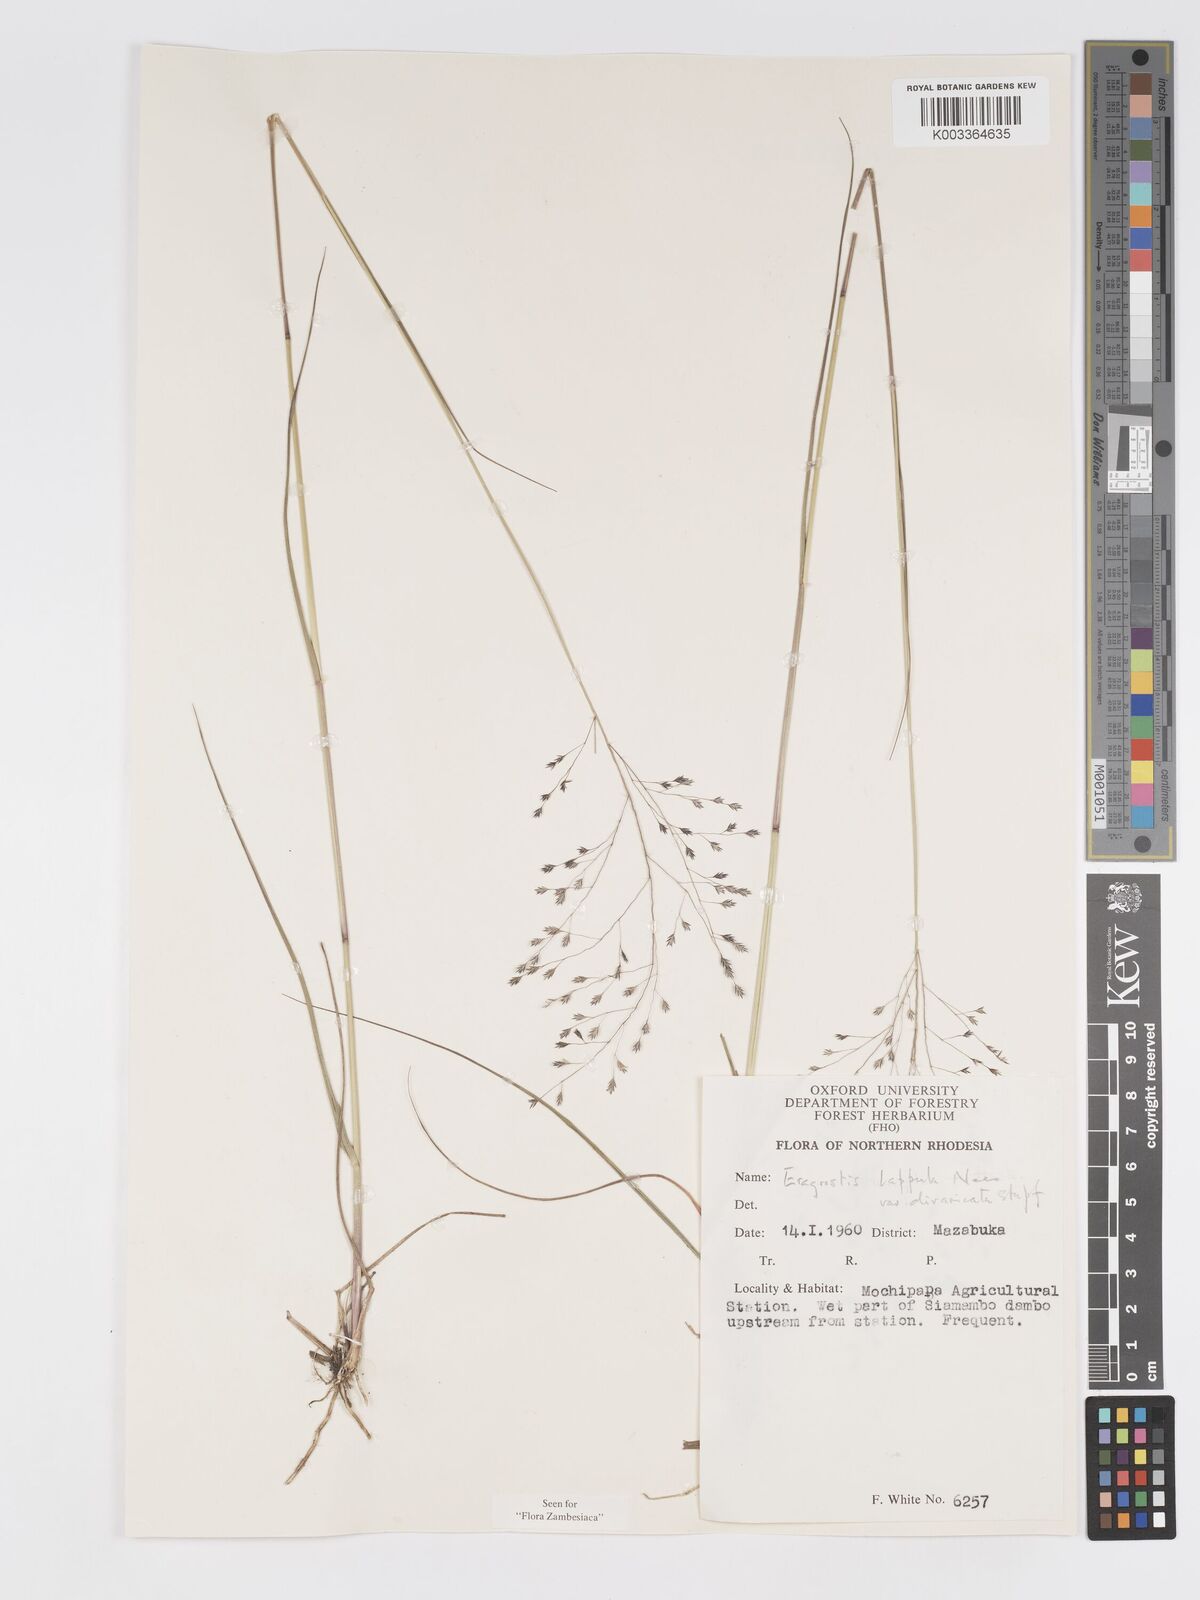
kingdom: Plantae
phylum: Tracheophyta
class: Liliopsida
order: Poales
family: Poaceae
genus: Eragrostis
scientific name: Eragrostis lappula
